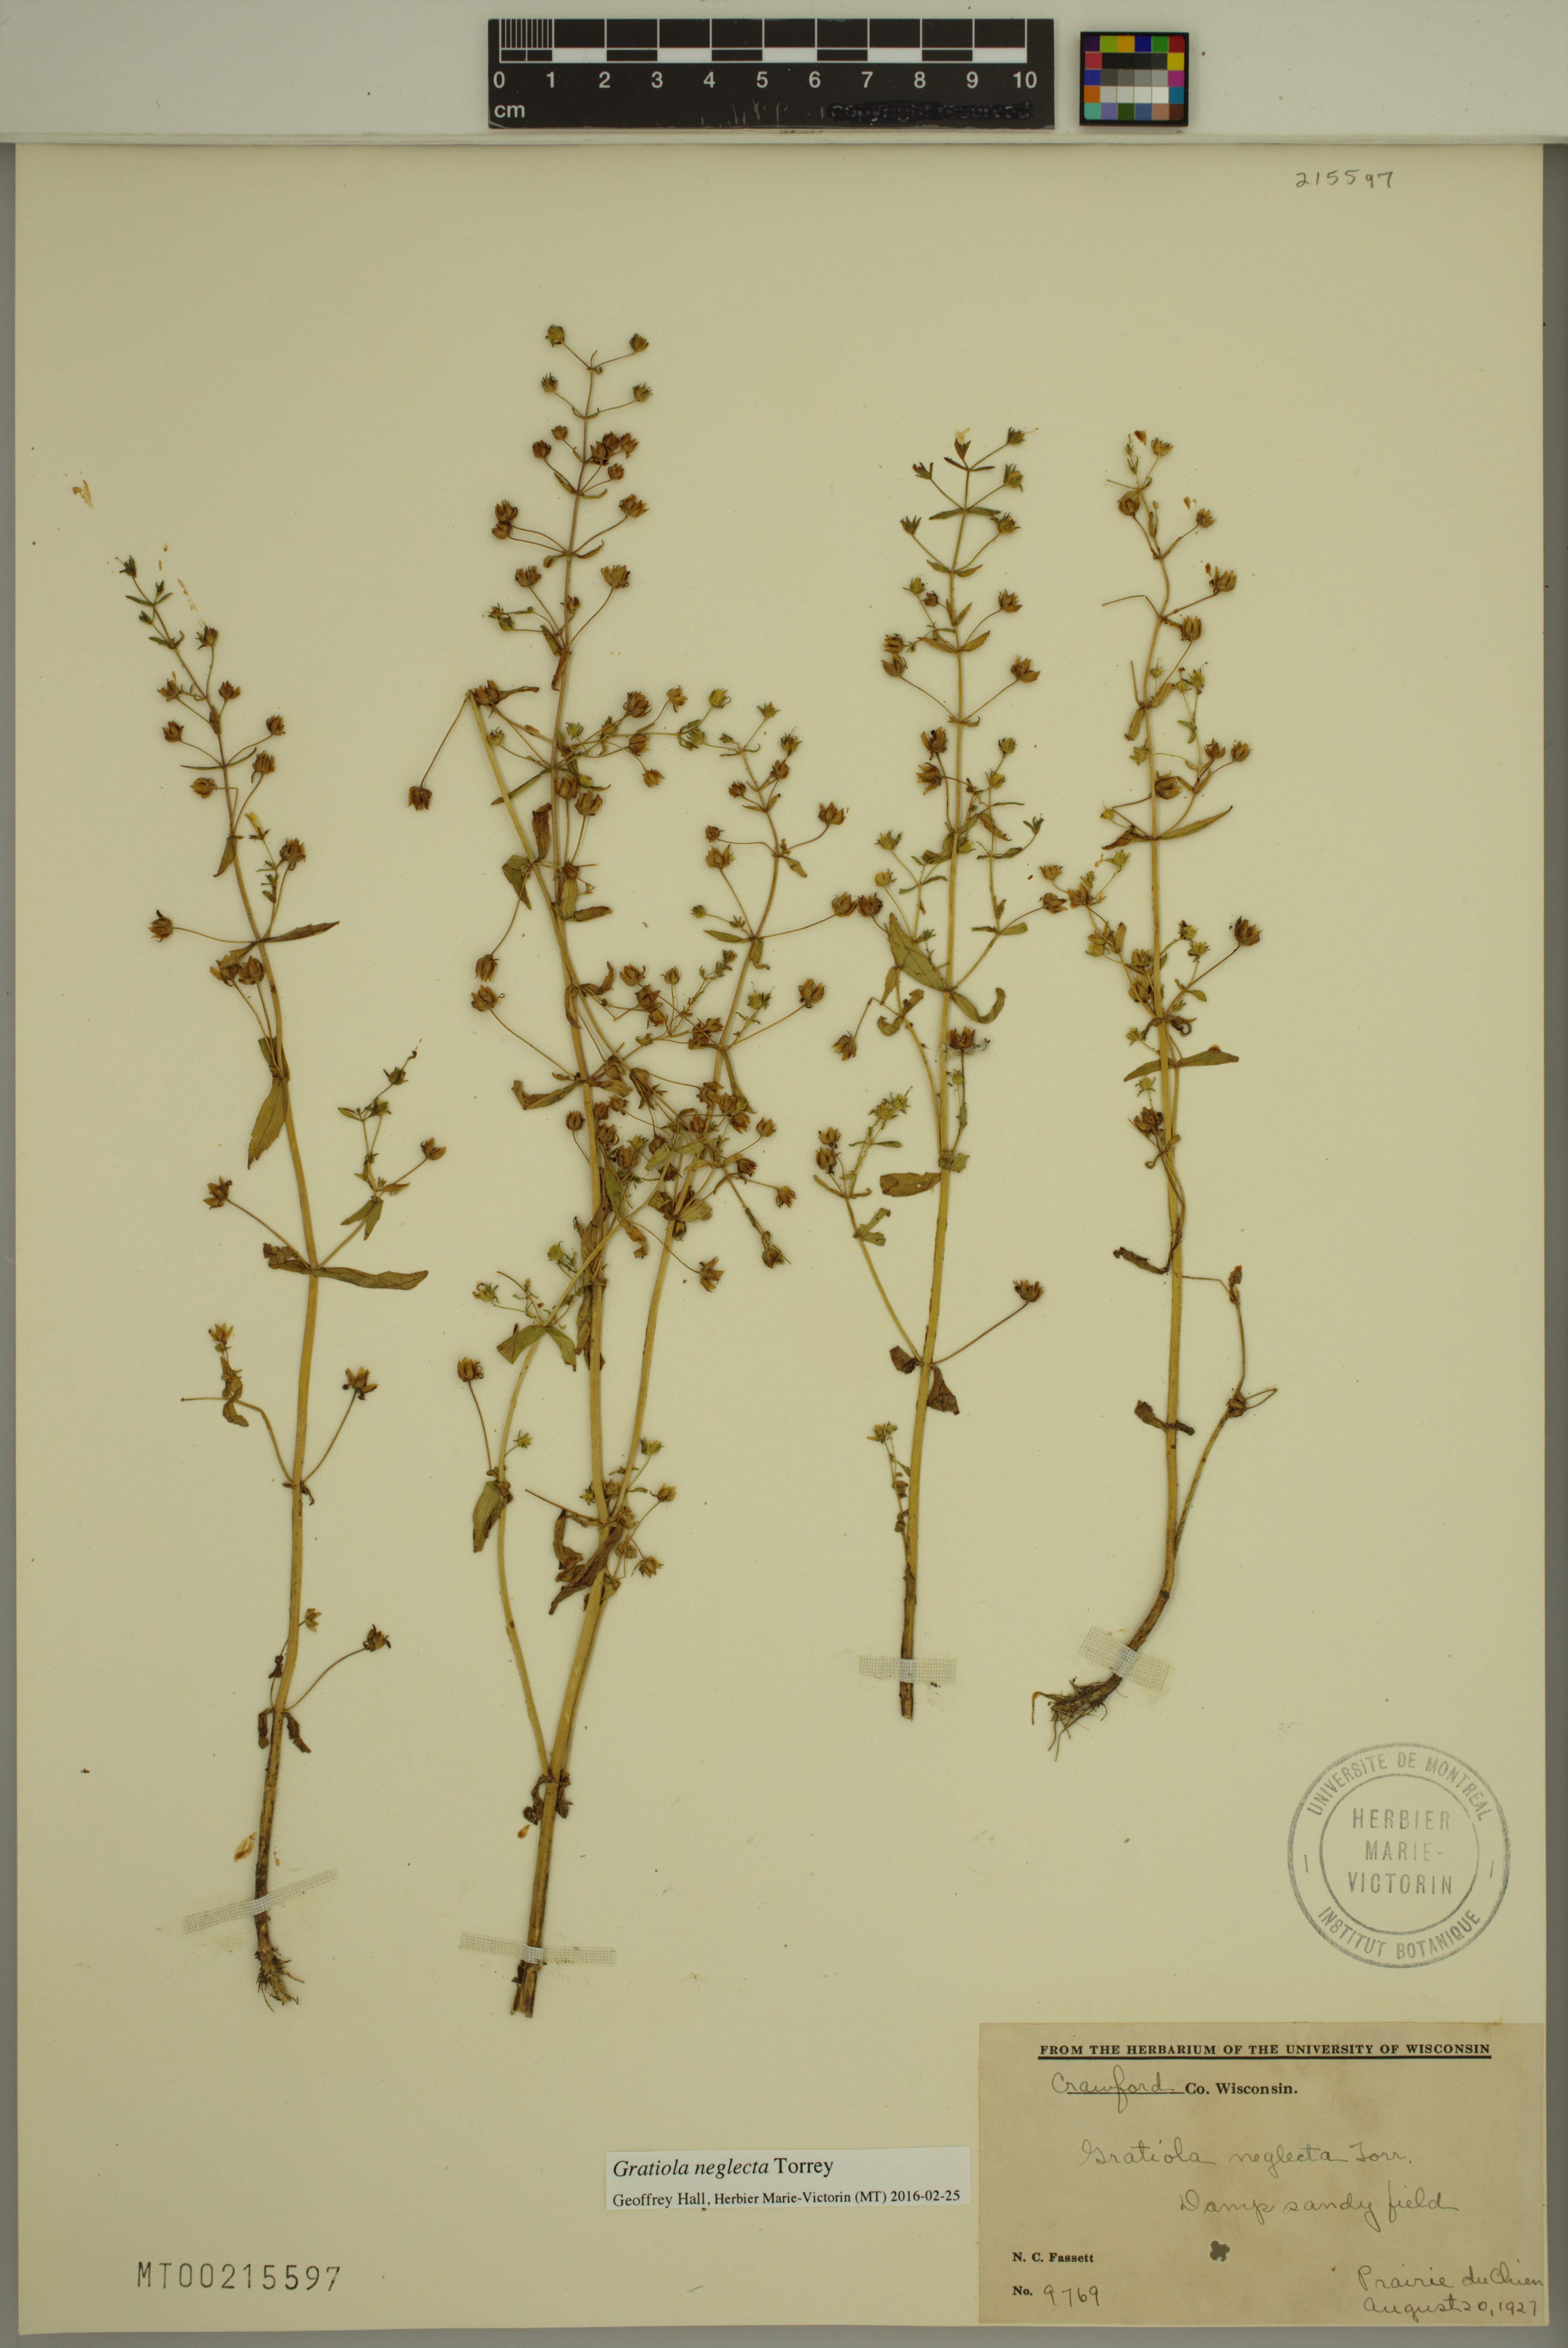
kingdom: Plantae
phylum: Tracheophyta
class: Magnoliopsida
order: Lamiales
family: Plantaginaceae
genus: Gratiola
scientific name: Gratiola neglecta
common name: American hedge-hyssop
